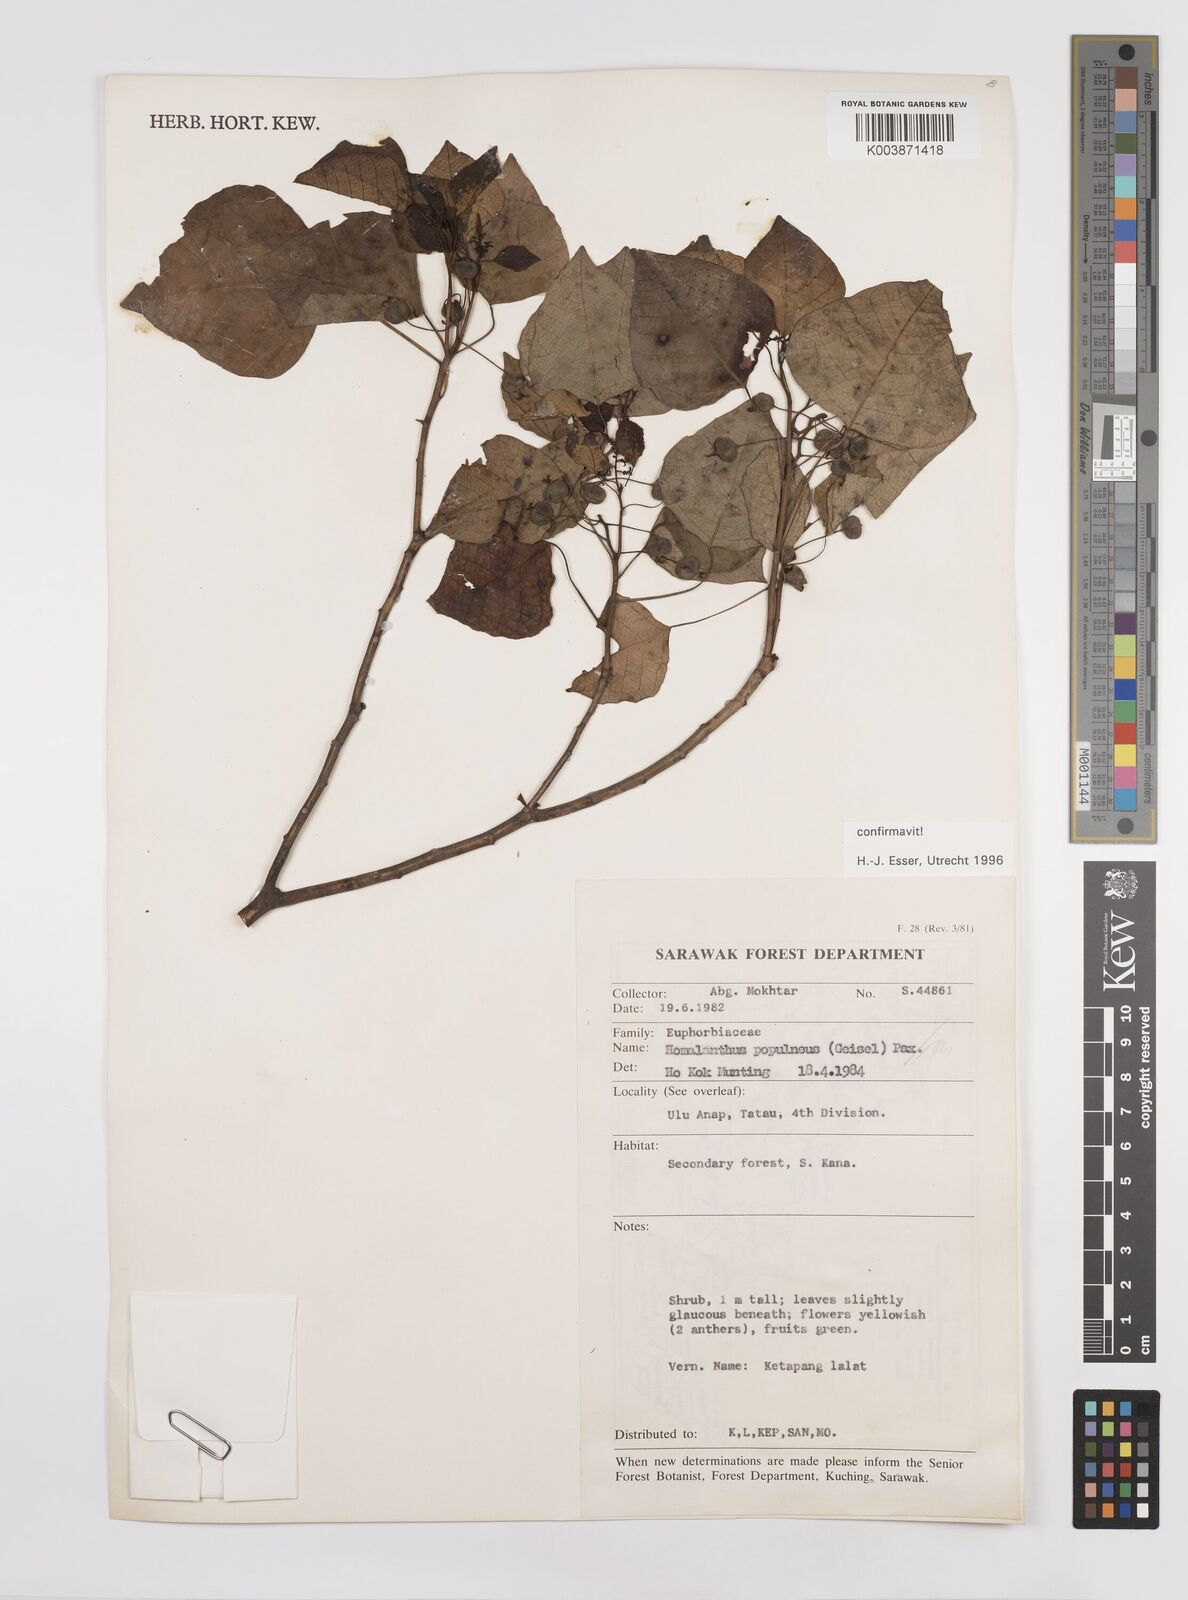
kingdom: Plantae
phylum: Tracheophyta
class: Magnoliopsida
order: Malpighiales
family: Euphorbiaceae
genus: Homalanthus
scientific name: Homalanthus populneus
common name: Spurge
